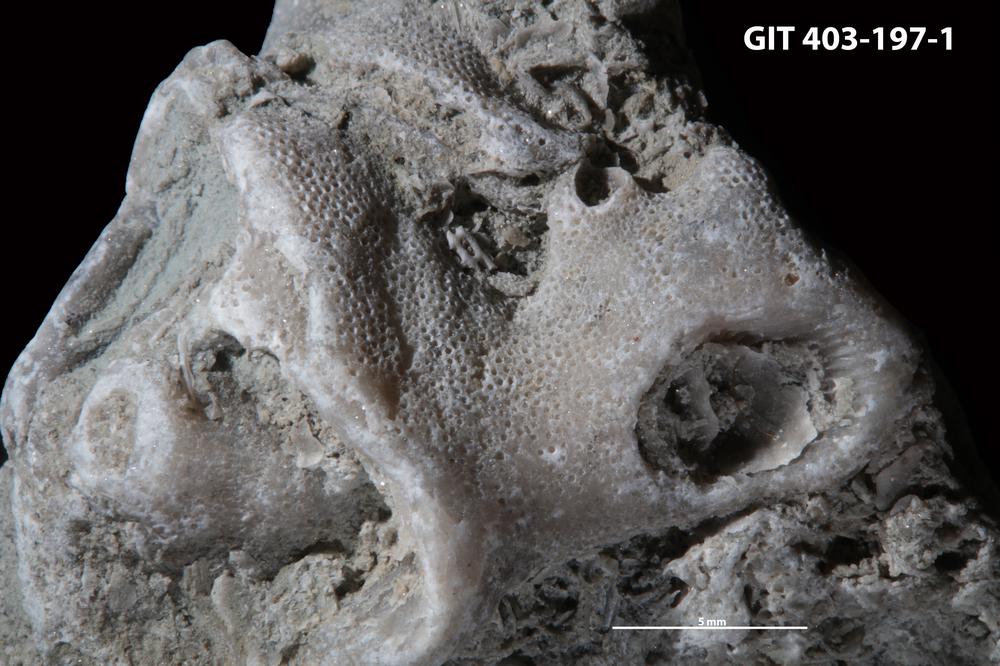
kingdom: Animalia
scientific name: Animalia
